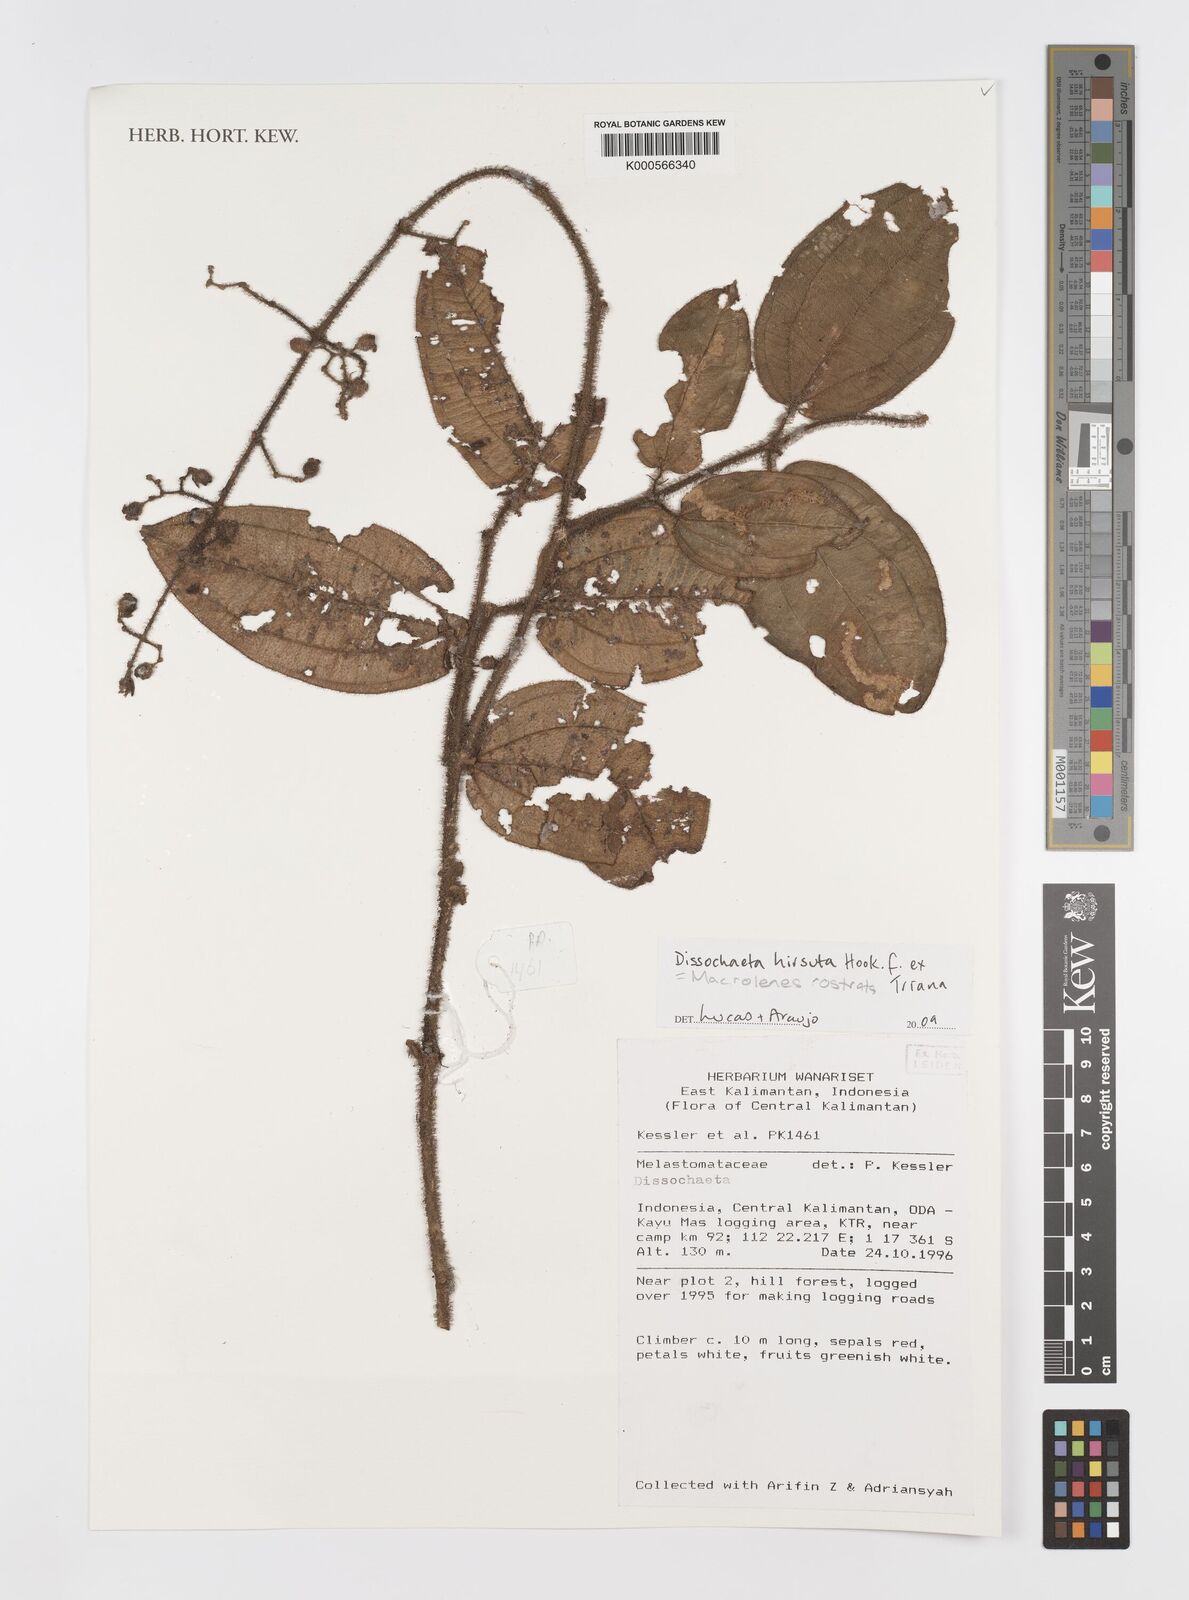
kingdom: Plantae
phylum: Tracheophyta
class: Magnoliopsida
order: Myrtales
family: Melastomataceae
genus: Macrolenes
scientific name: Macrolenes rostrata
